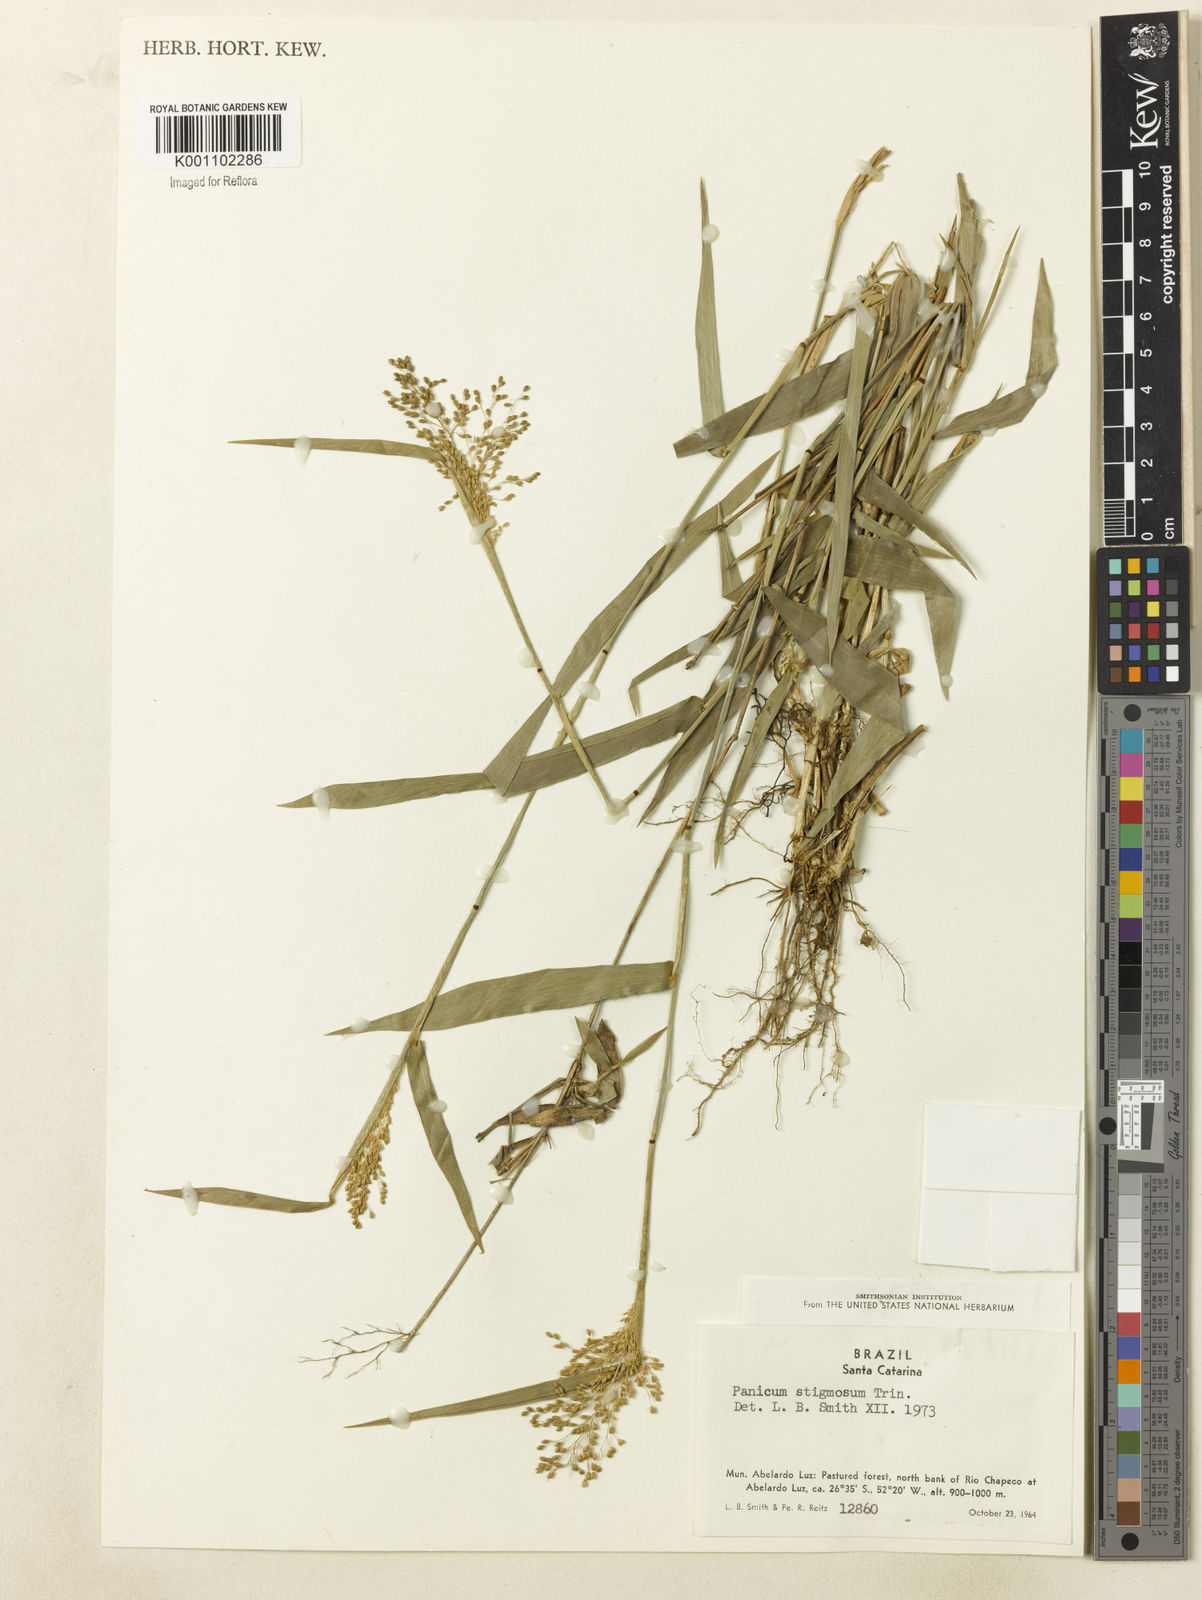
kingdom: Plantae
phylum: Tracheophyta
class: Liliopsida
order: Poales
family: Poaceae
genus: Dichanthelium
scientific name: Dichanthelium stigmosum
